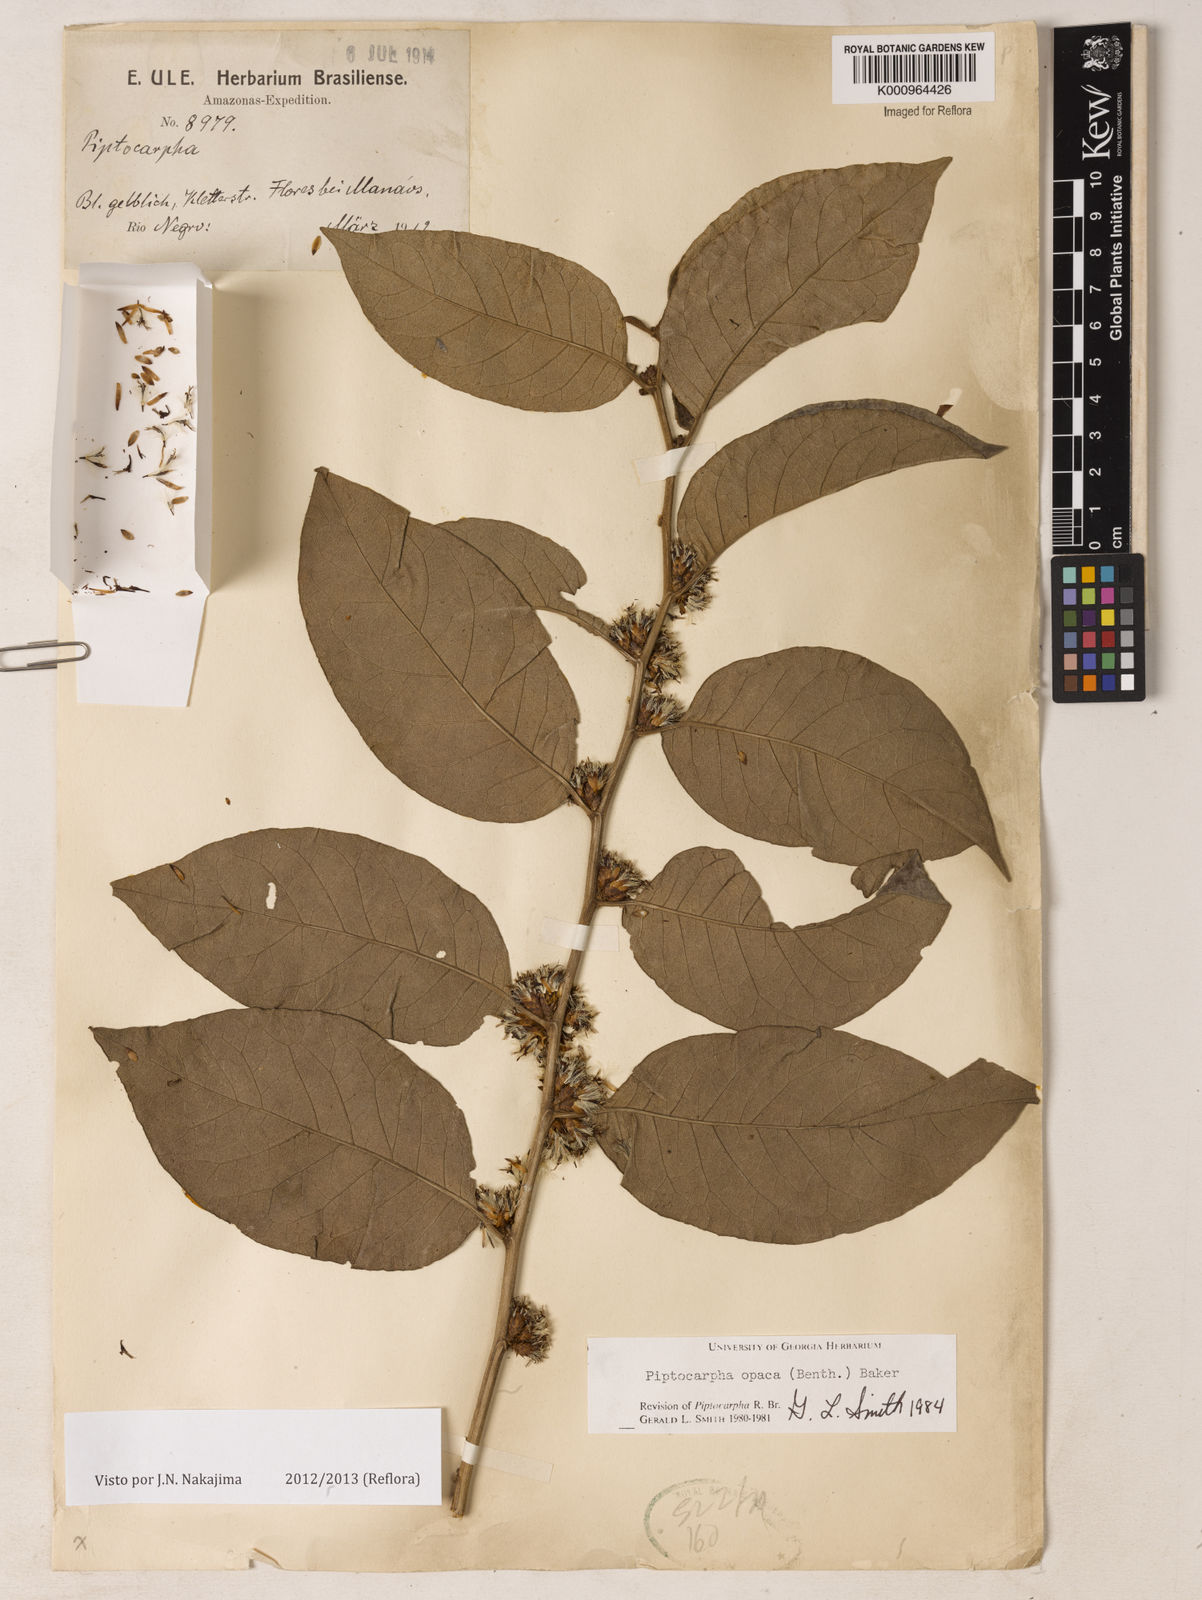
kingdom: Plantae
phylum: Tracheophyta
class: Magnoliopsida
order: Asterales
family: Asteraceae
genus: Piptocarpha
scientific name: Piptocarpha opaca
